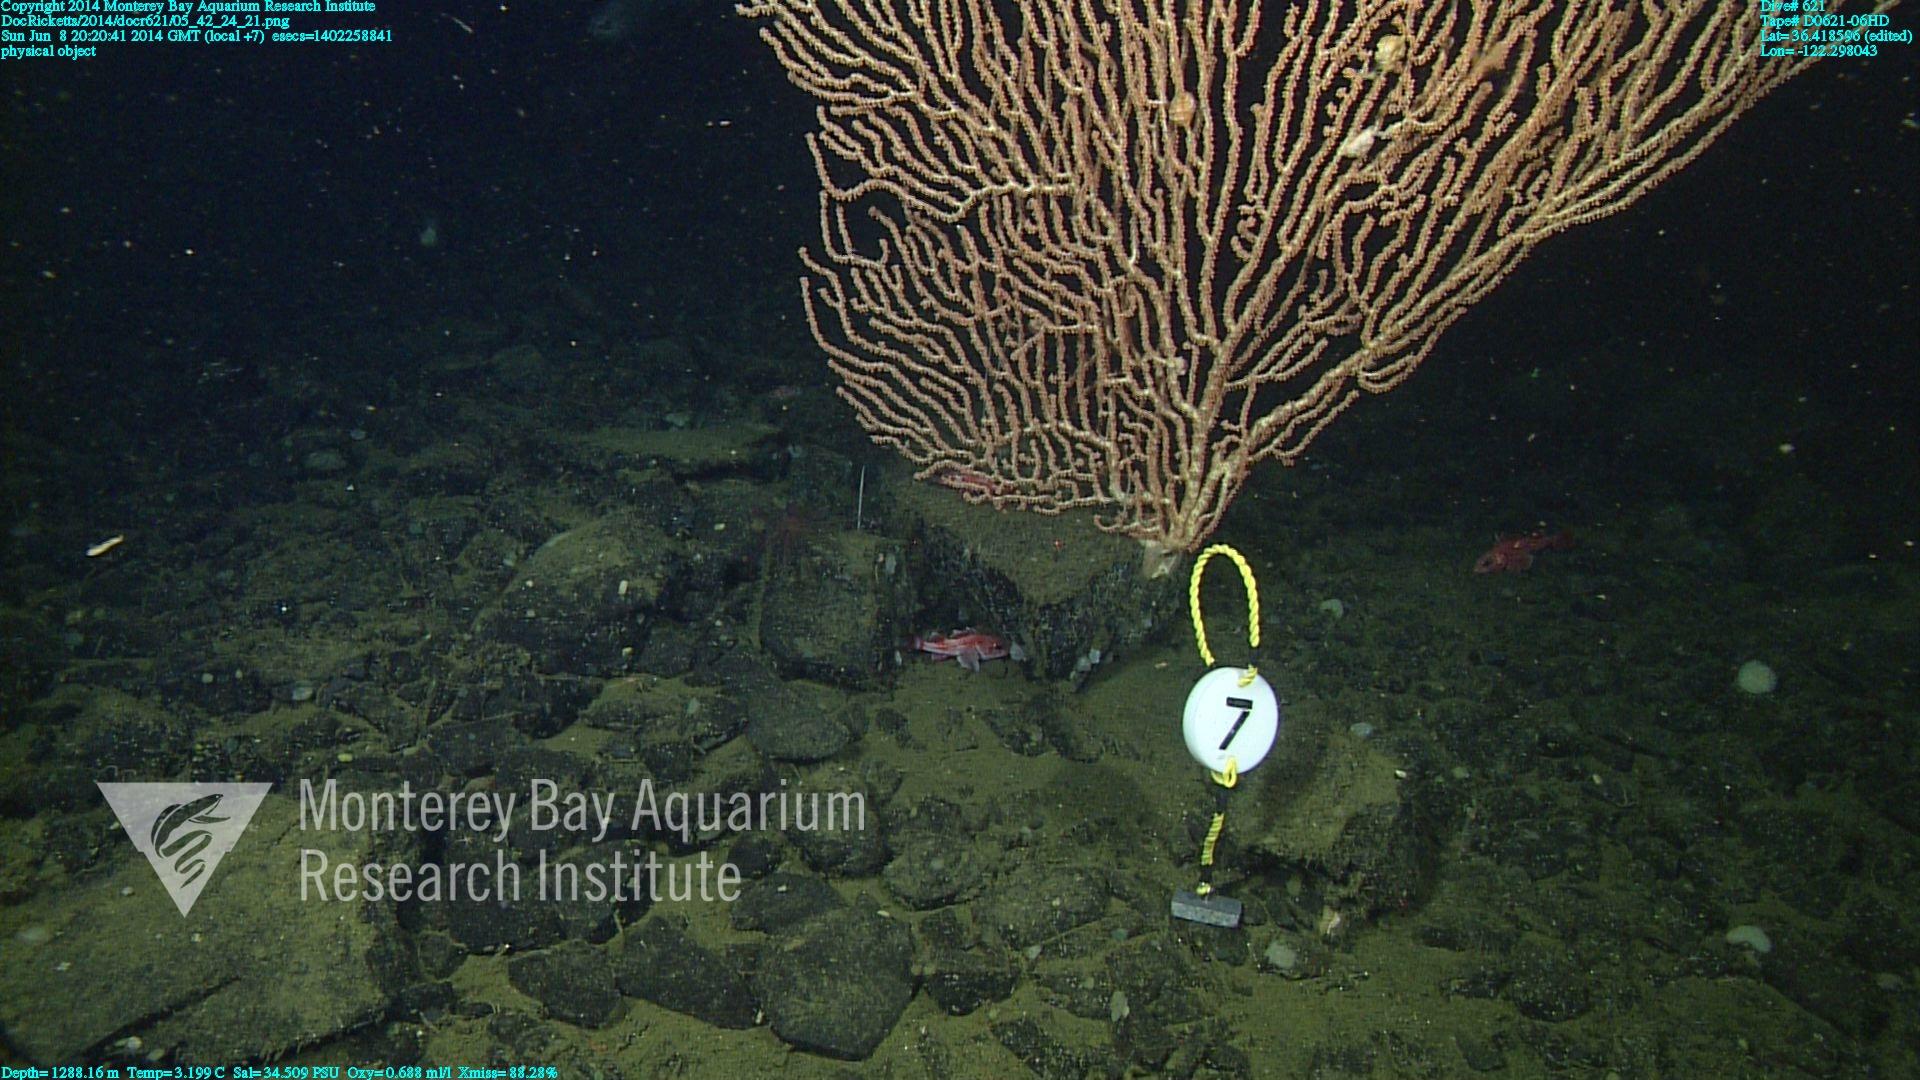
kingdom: Animalia
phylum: Cnidaria
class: Anthozoa
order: Scleralcyonacea
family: Keratoisididae
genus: Keratoisis
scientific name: Keratoisis
